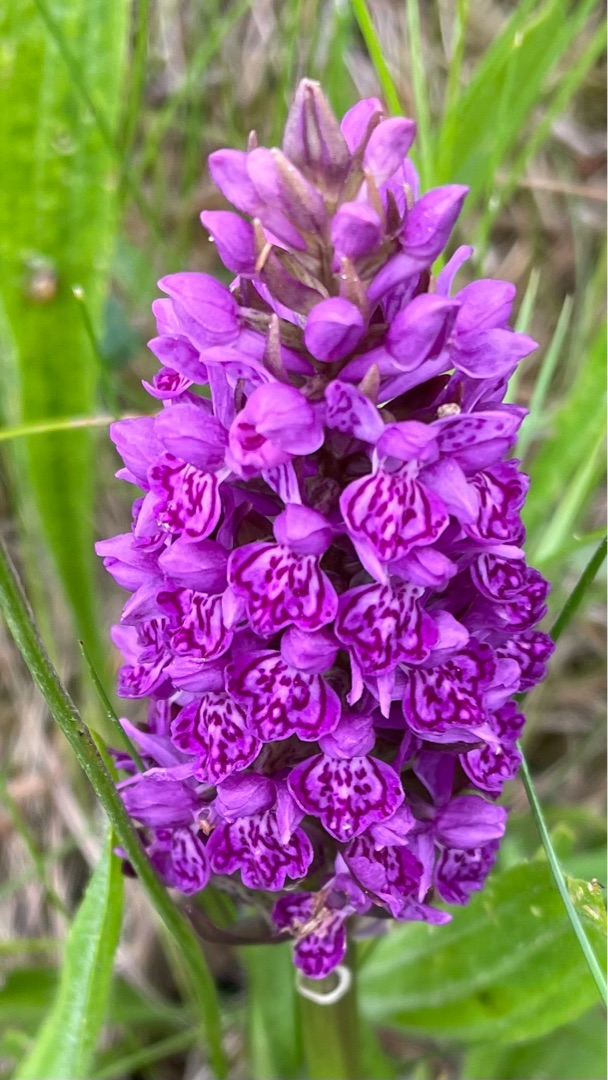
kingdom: Plantae
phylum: Tracheophyta
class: Liliopsida
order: Asparagales
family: Orchidaceae
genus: Dactylorhiza
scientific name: Dactylorhiza majalis
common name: Purpur-gøgeurt
